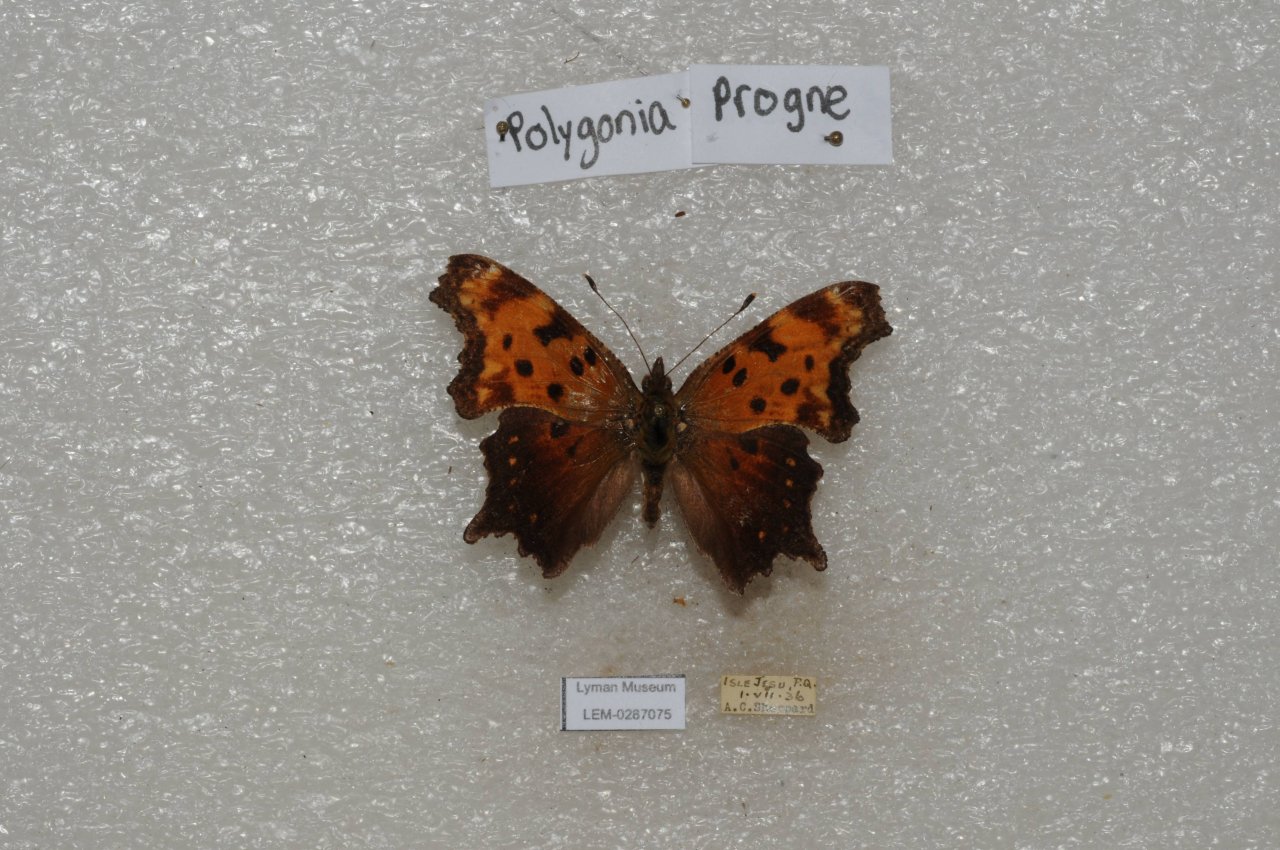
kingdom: Animalia
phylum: Arthropoda
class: Insecta
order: Lepidoptera
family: Nymphalidae
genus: Polygonia
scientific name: Polygonia progne
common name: Gray Comma
